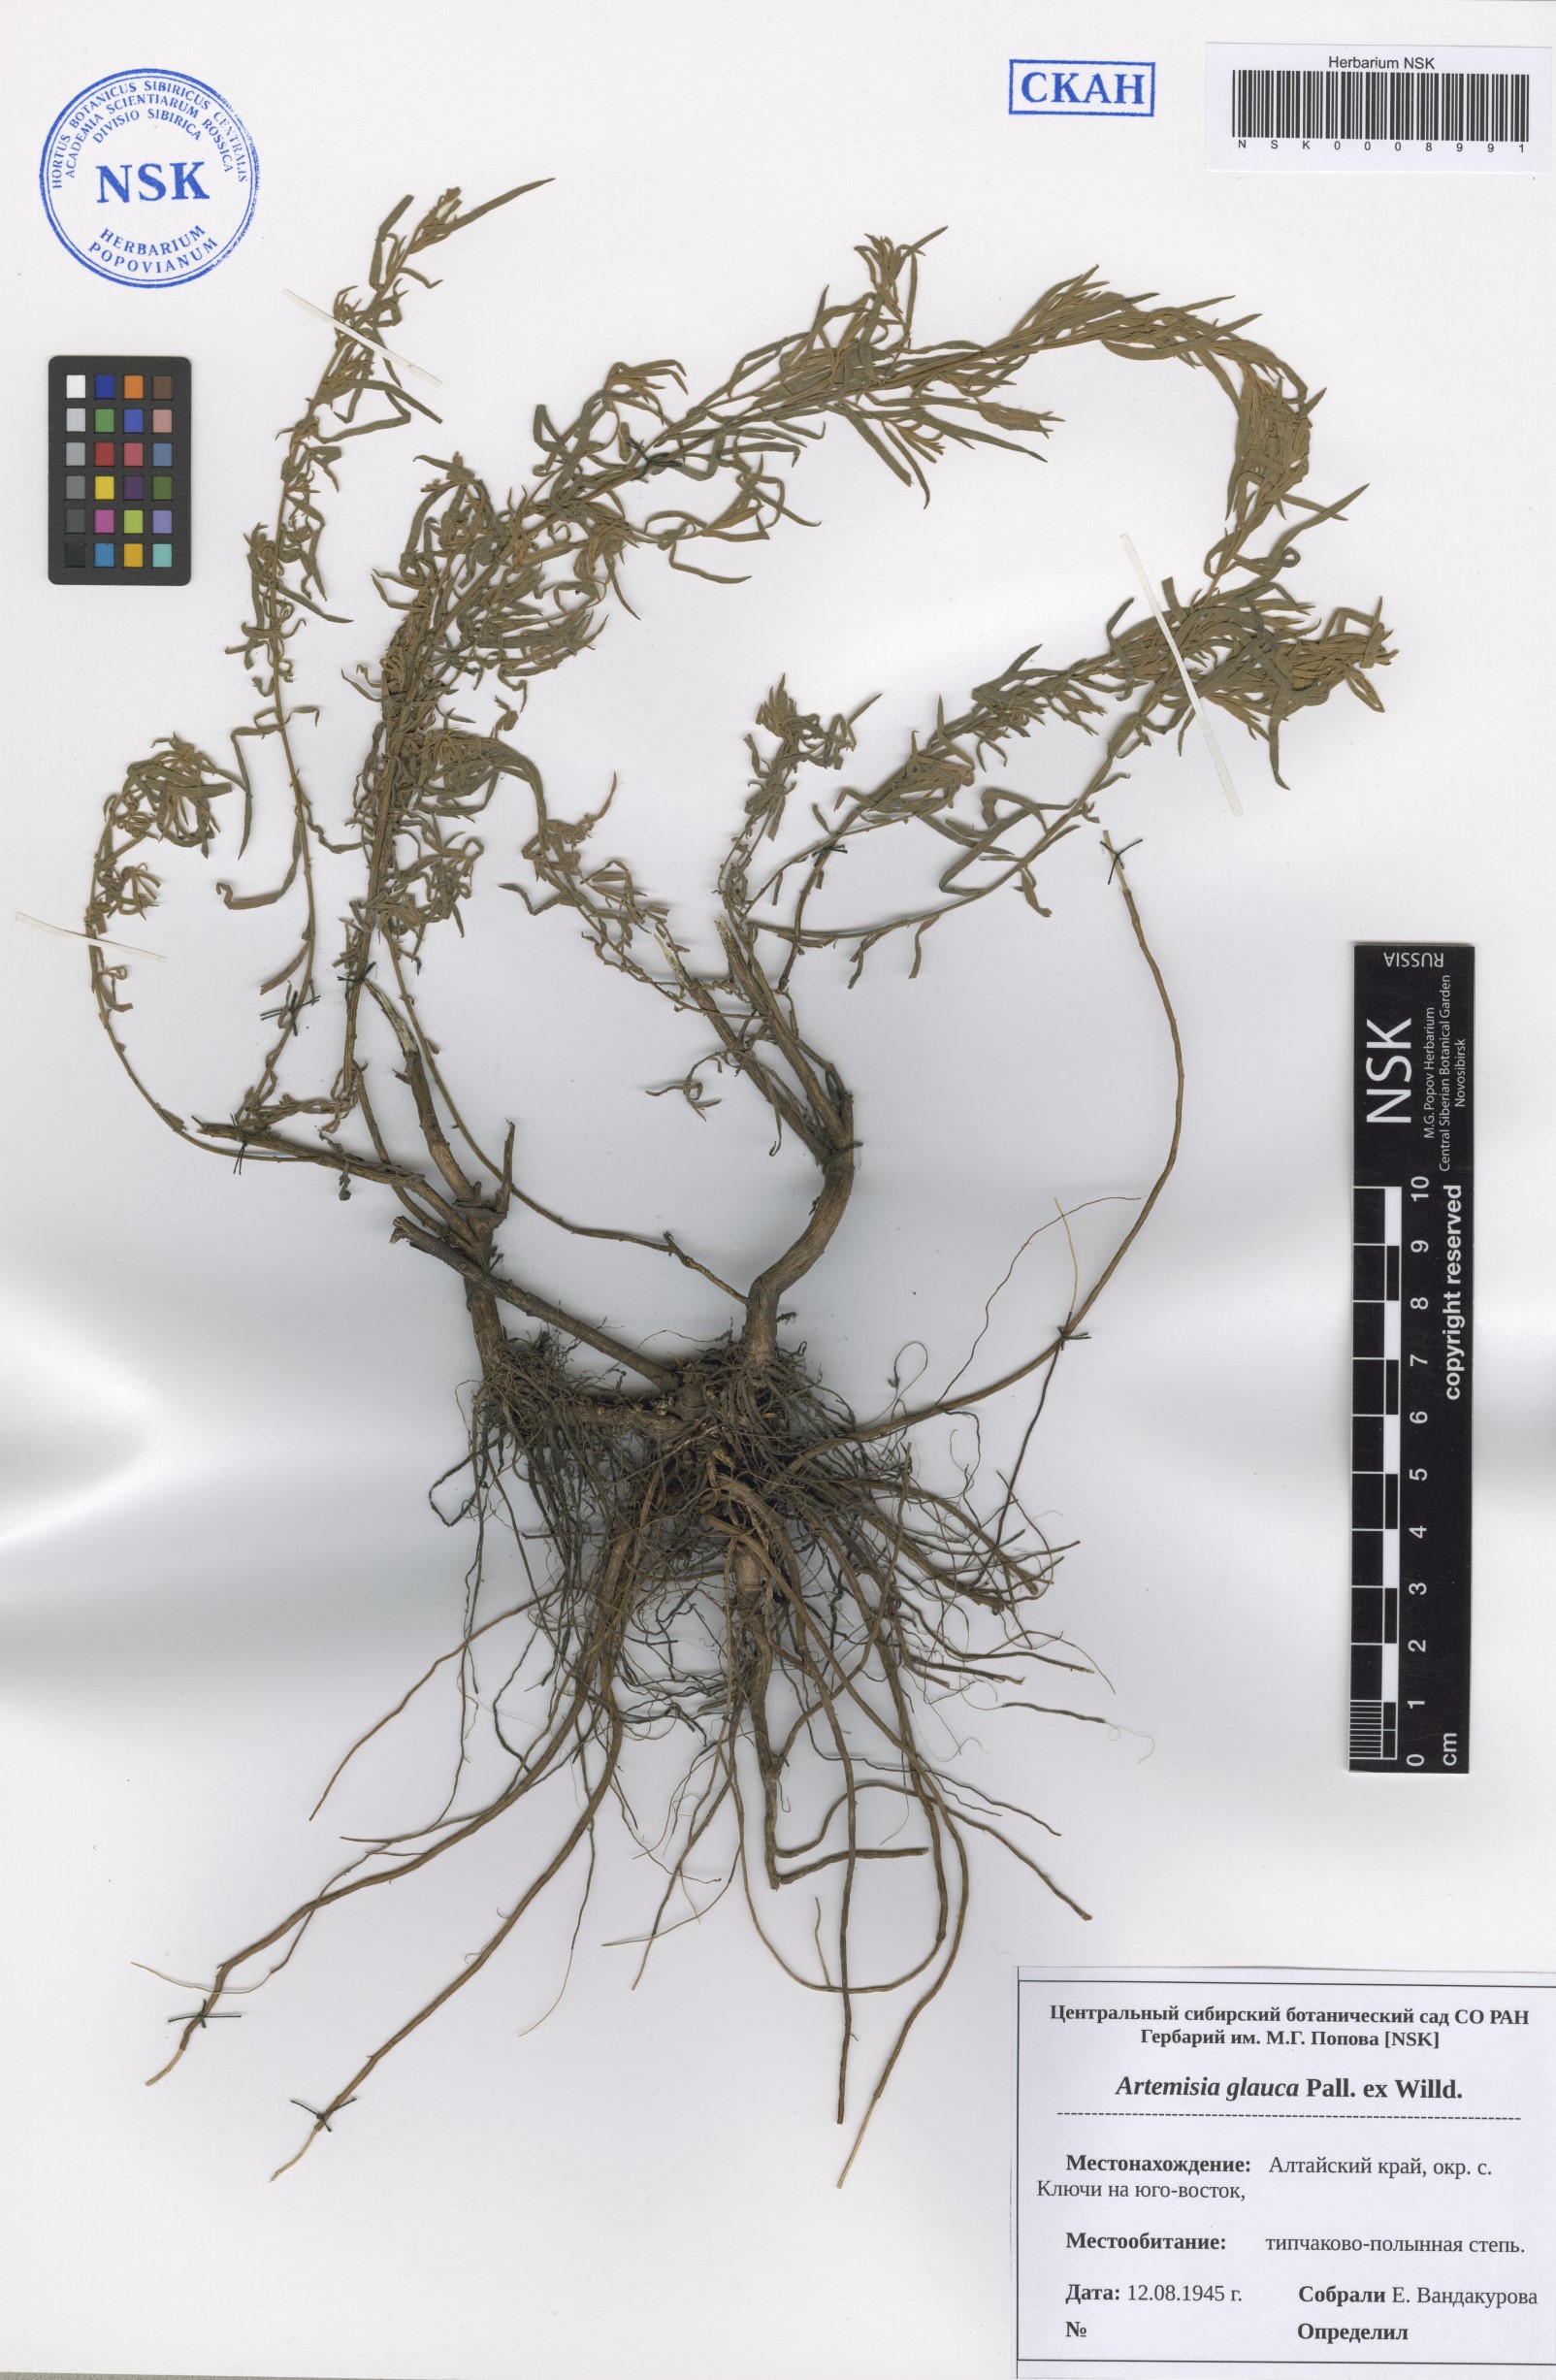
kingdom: Plantae
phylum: Tracheophyta
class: Magnoliopsida
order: Asterales
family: Asteraceae
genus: Artemisia
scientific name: Artemisia glauca
